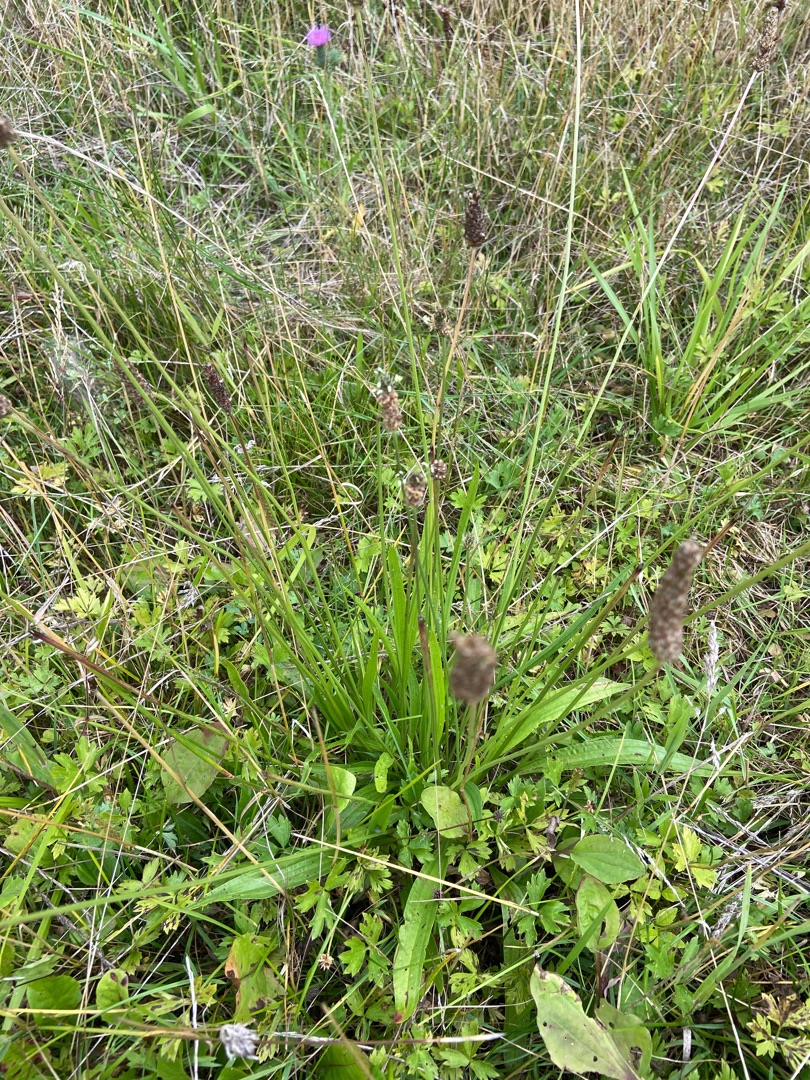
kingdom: Plantae
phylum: Tracheophyta
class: Magnoliopsida
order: Lamiales
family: Plantaginaceae
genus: Plantago
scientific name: Plantago lanceolata
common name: Lancet-vejbred
